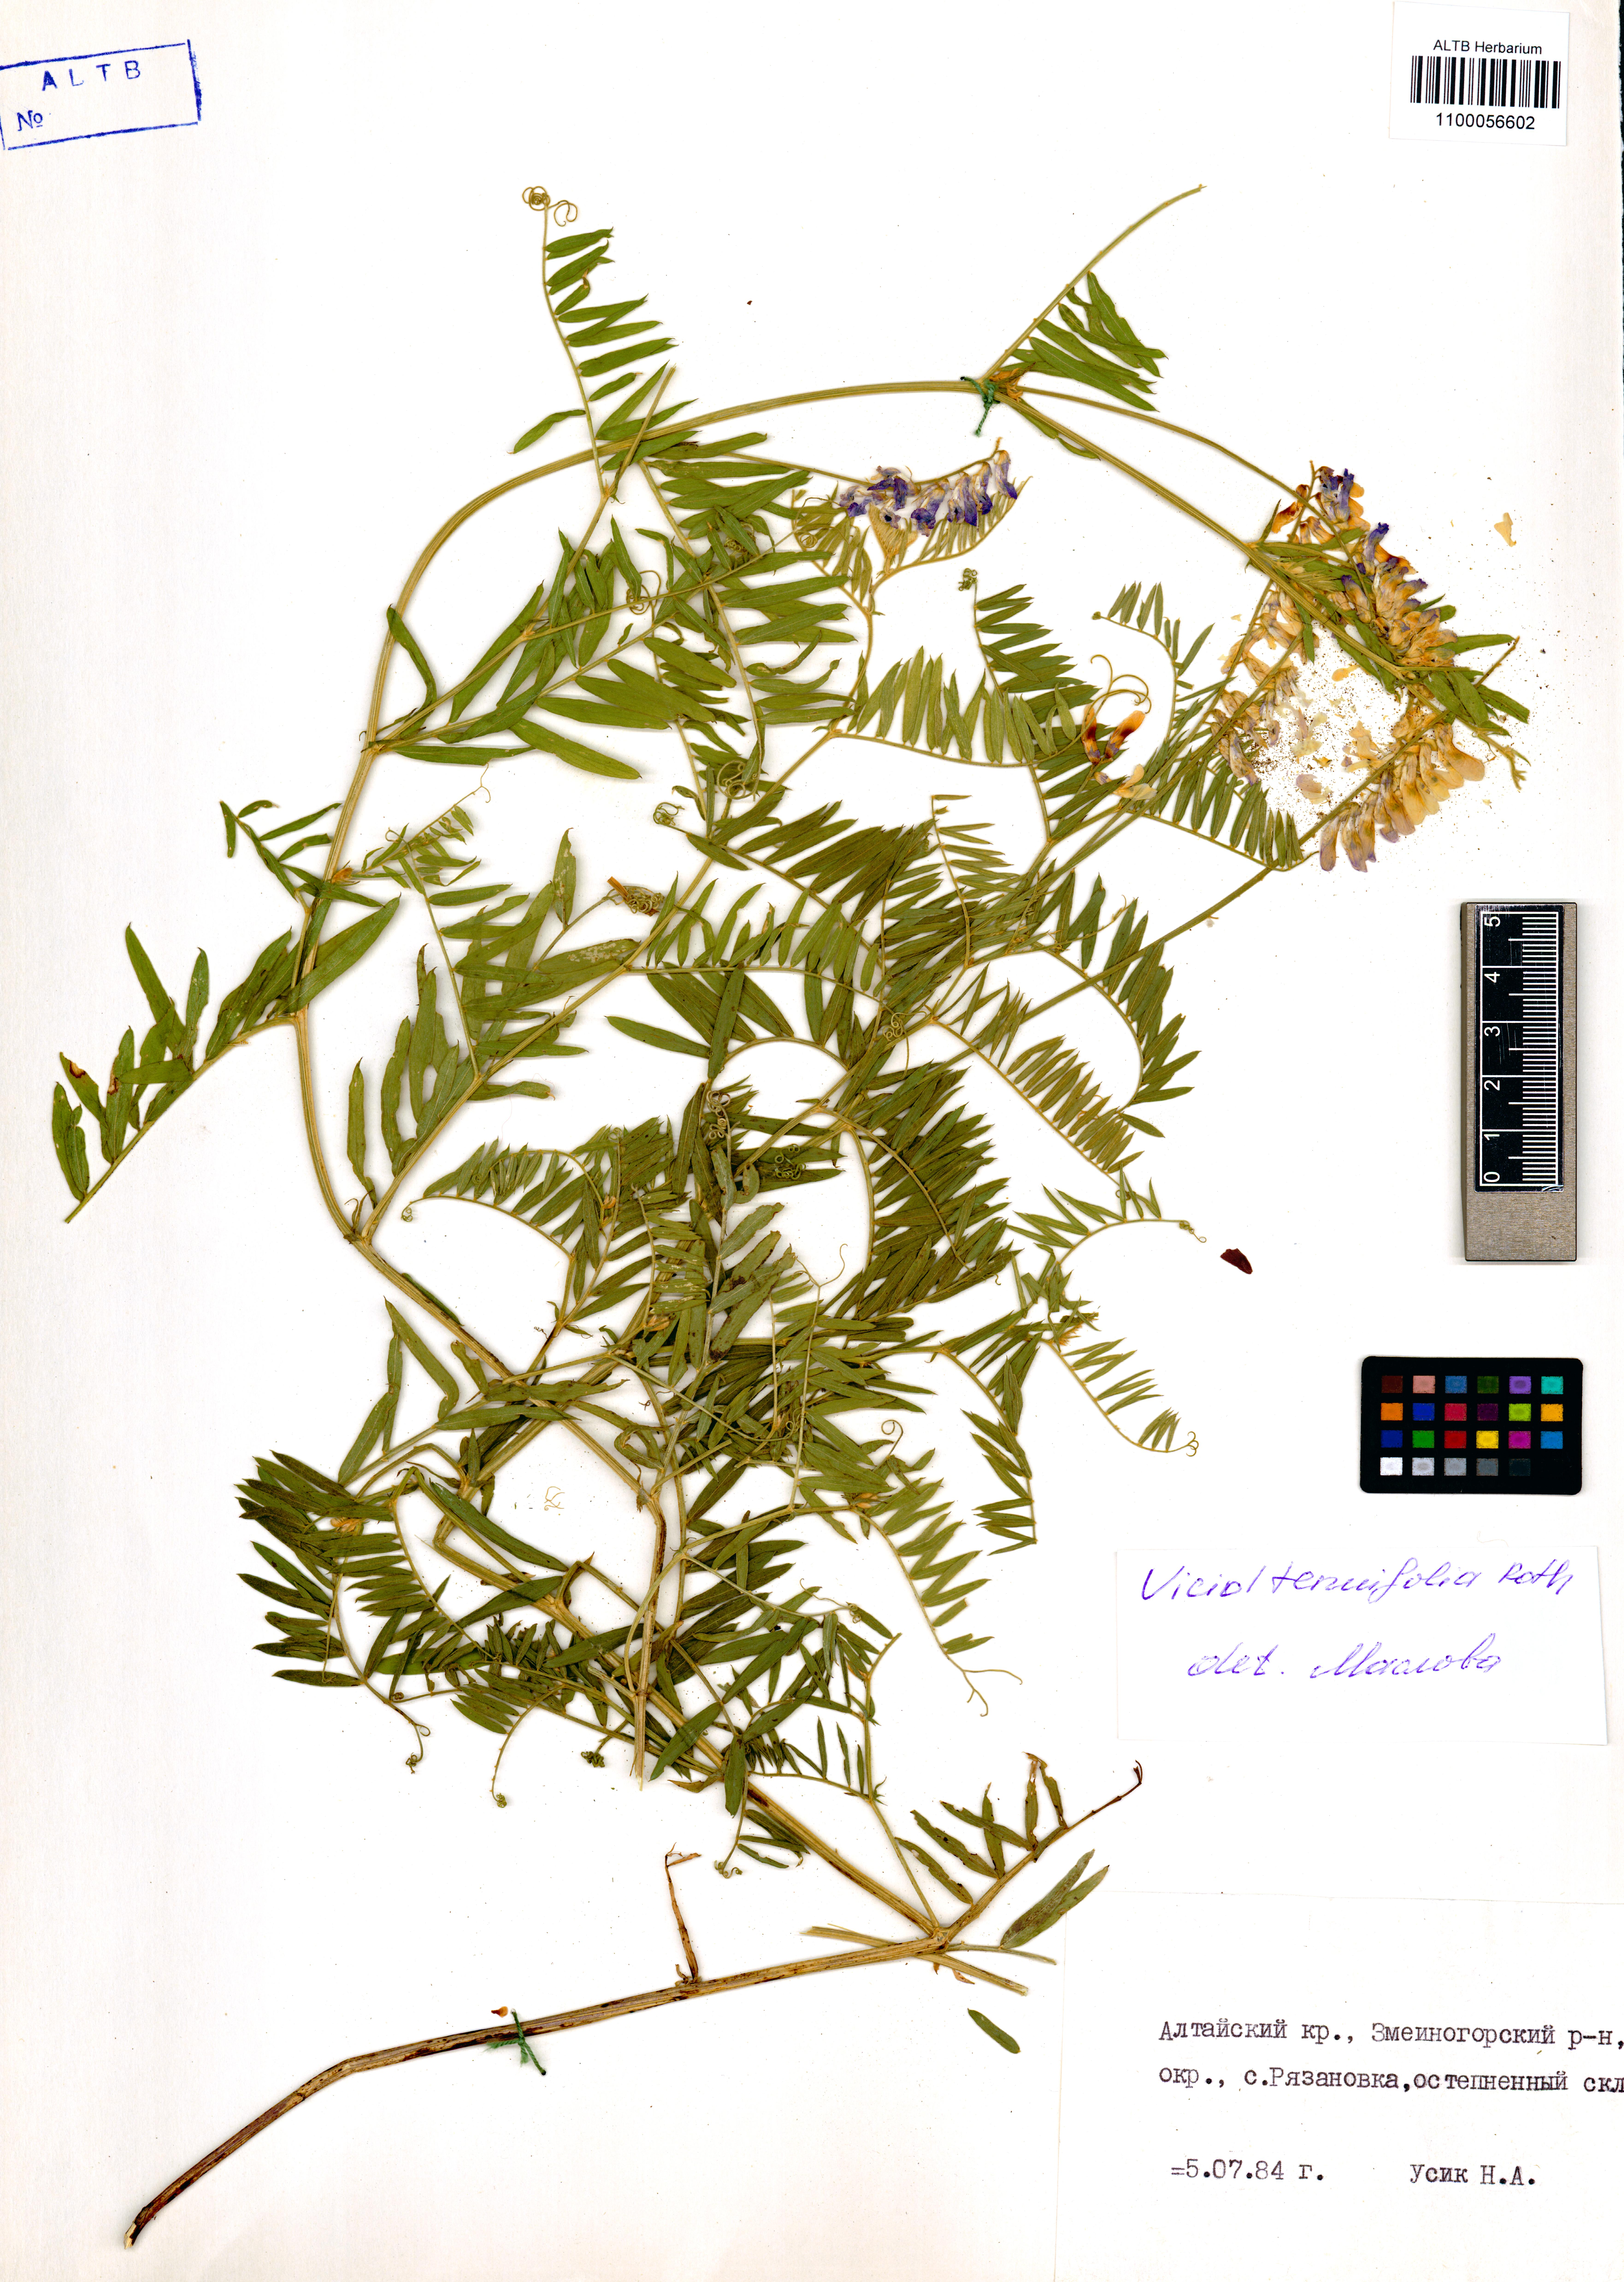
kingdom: Plantae
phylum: Tracheophyta
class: Magnoliopsida
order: Fabales
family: Fabaceae
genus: Vicia
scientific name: Vicia tenuifolia
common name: Fine-leaved vetch
